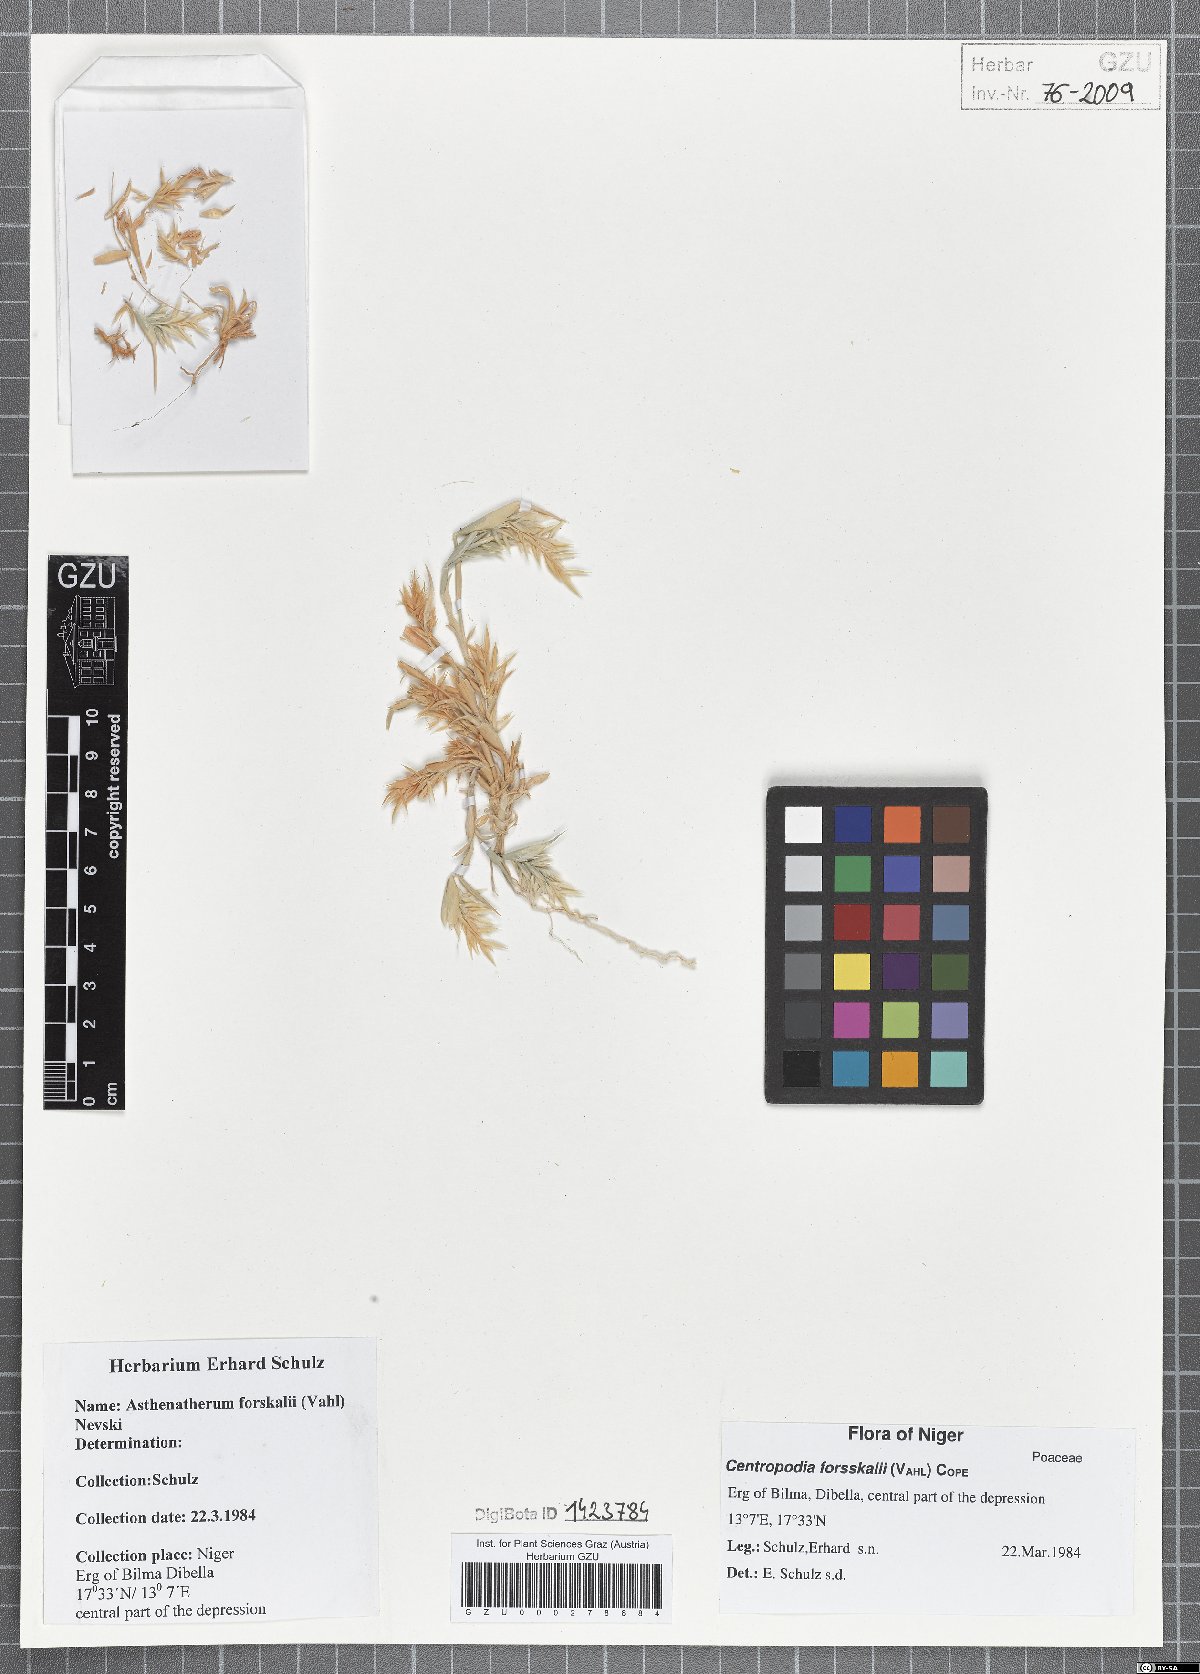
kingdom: Plantae
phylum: Tracheophyta
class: Liliopsida
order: Poales
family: Poaceae
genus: Centropodia
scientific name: Centropodia forsskalii
